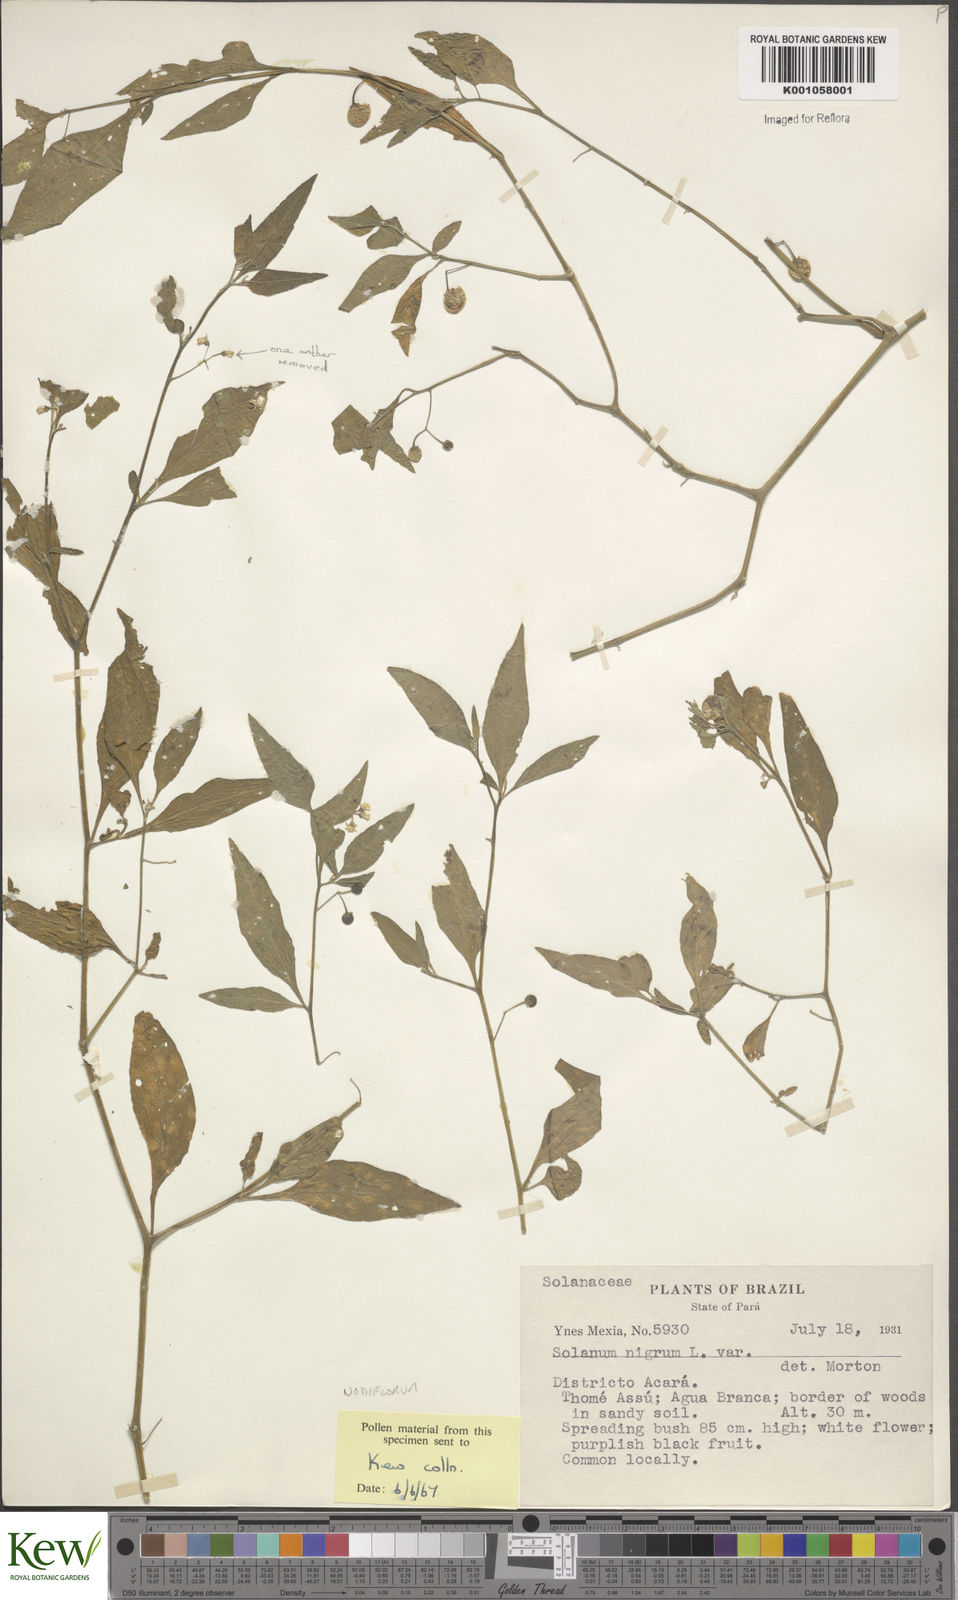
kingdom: Plantae
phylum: Tracheophyta
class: Magnoliopsida
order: Solanales
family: Solanaceae
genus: Solanum
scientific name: Solanum americanum
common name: American black nightshade
